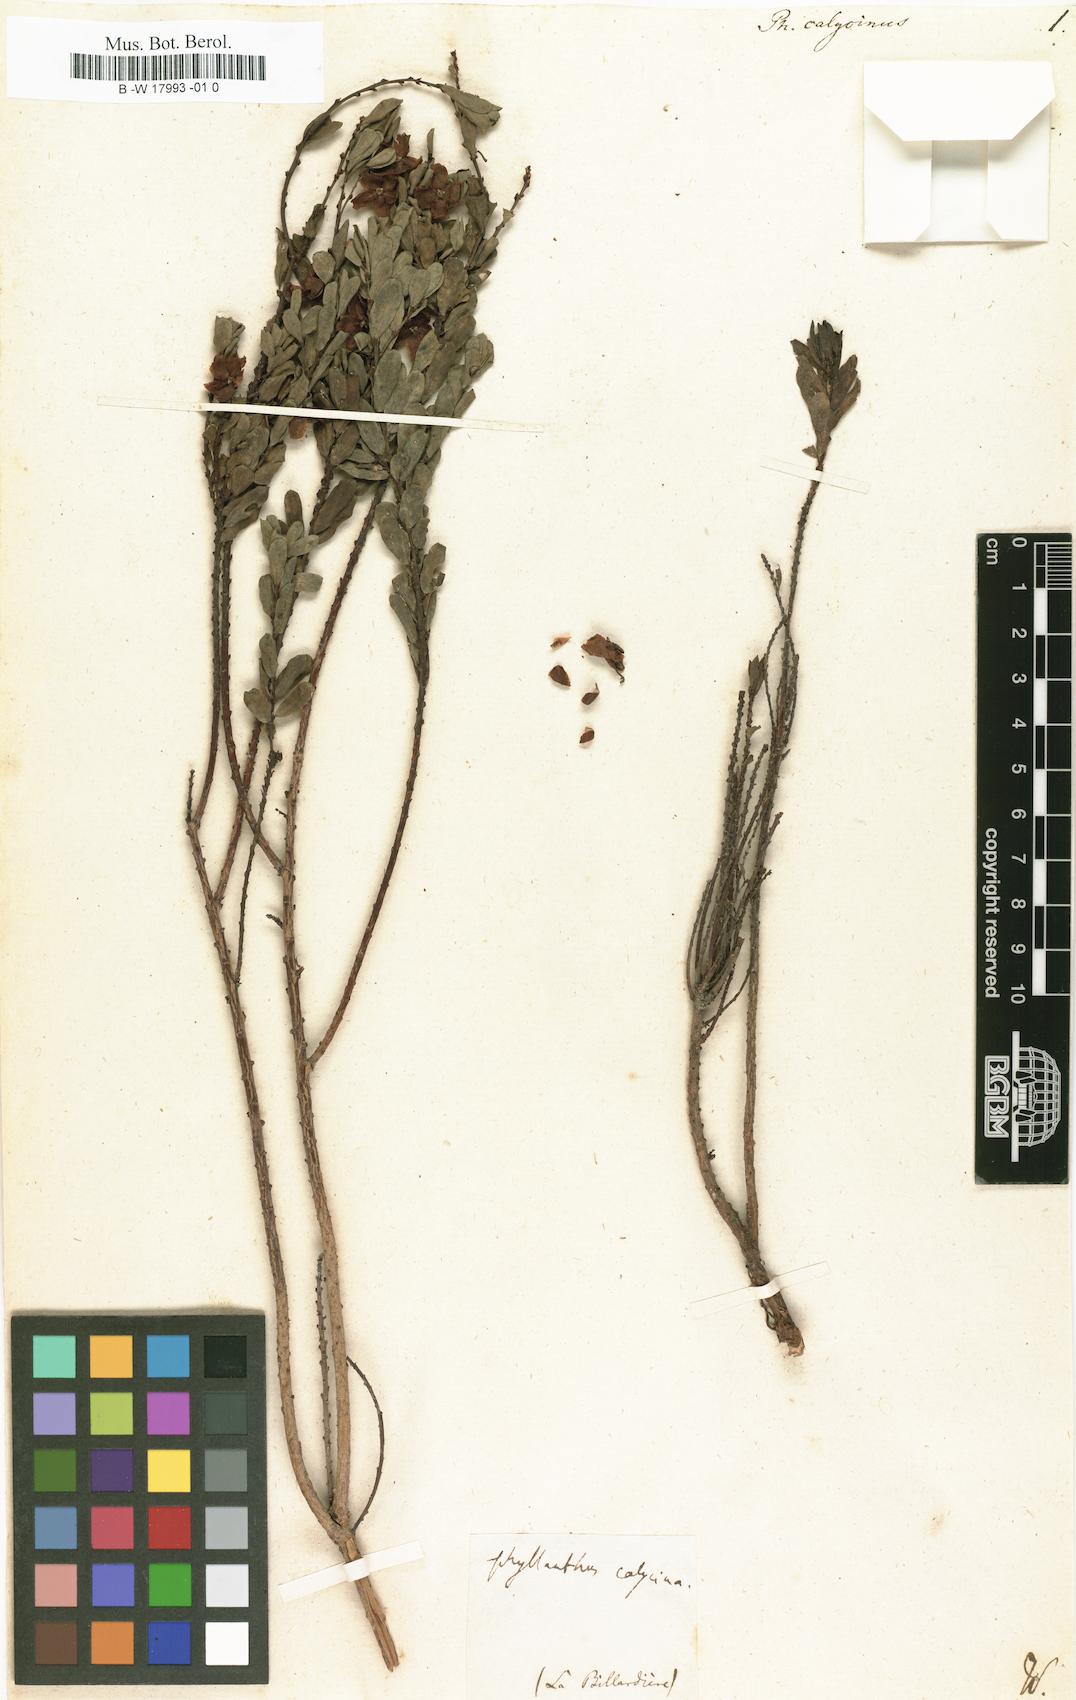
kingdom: Plantae
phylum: Tracheophyta
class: Magnoliopsida
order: Malpighiales
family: Phyllanthaceae
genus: Phyllanthus
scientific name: Phyllanthus calycinus
